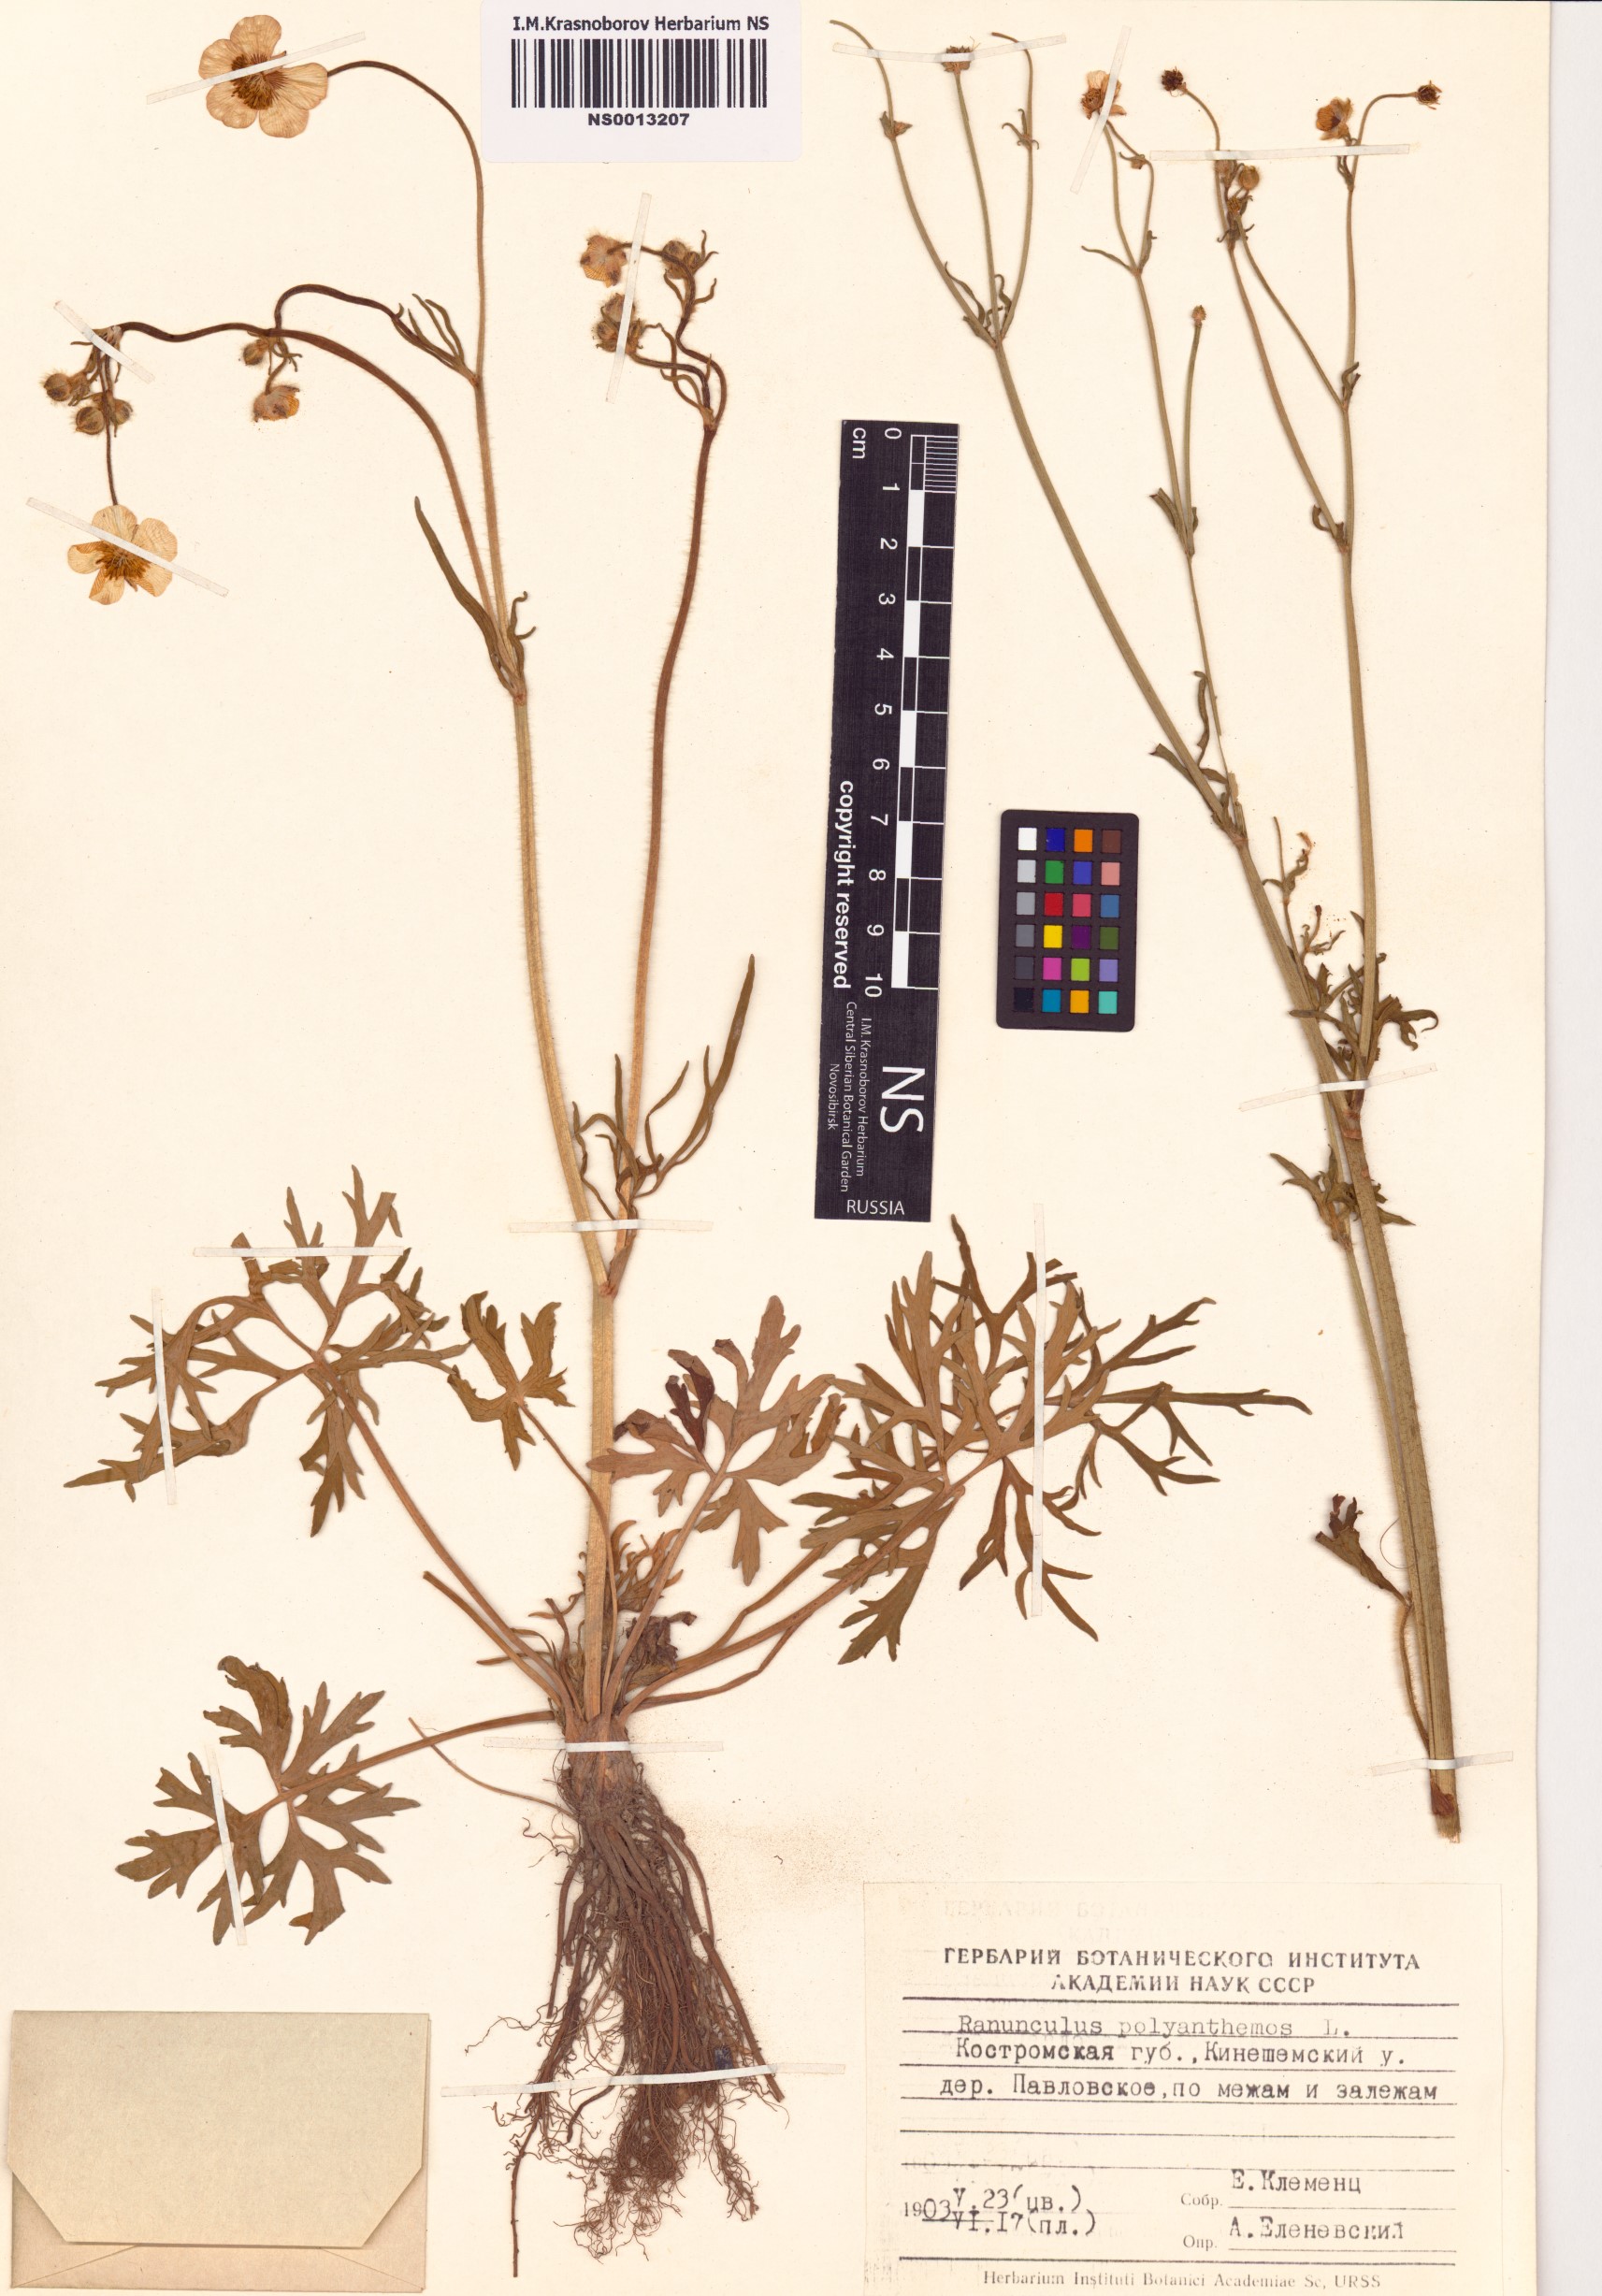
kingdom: Plantae
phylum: Tracheophyta
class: Magnoliopsida
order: Ranunculales
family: Ranunculaceae
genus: Ranunculus
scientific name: Ranunculus polyanthemos
